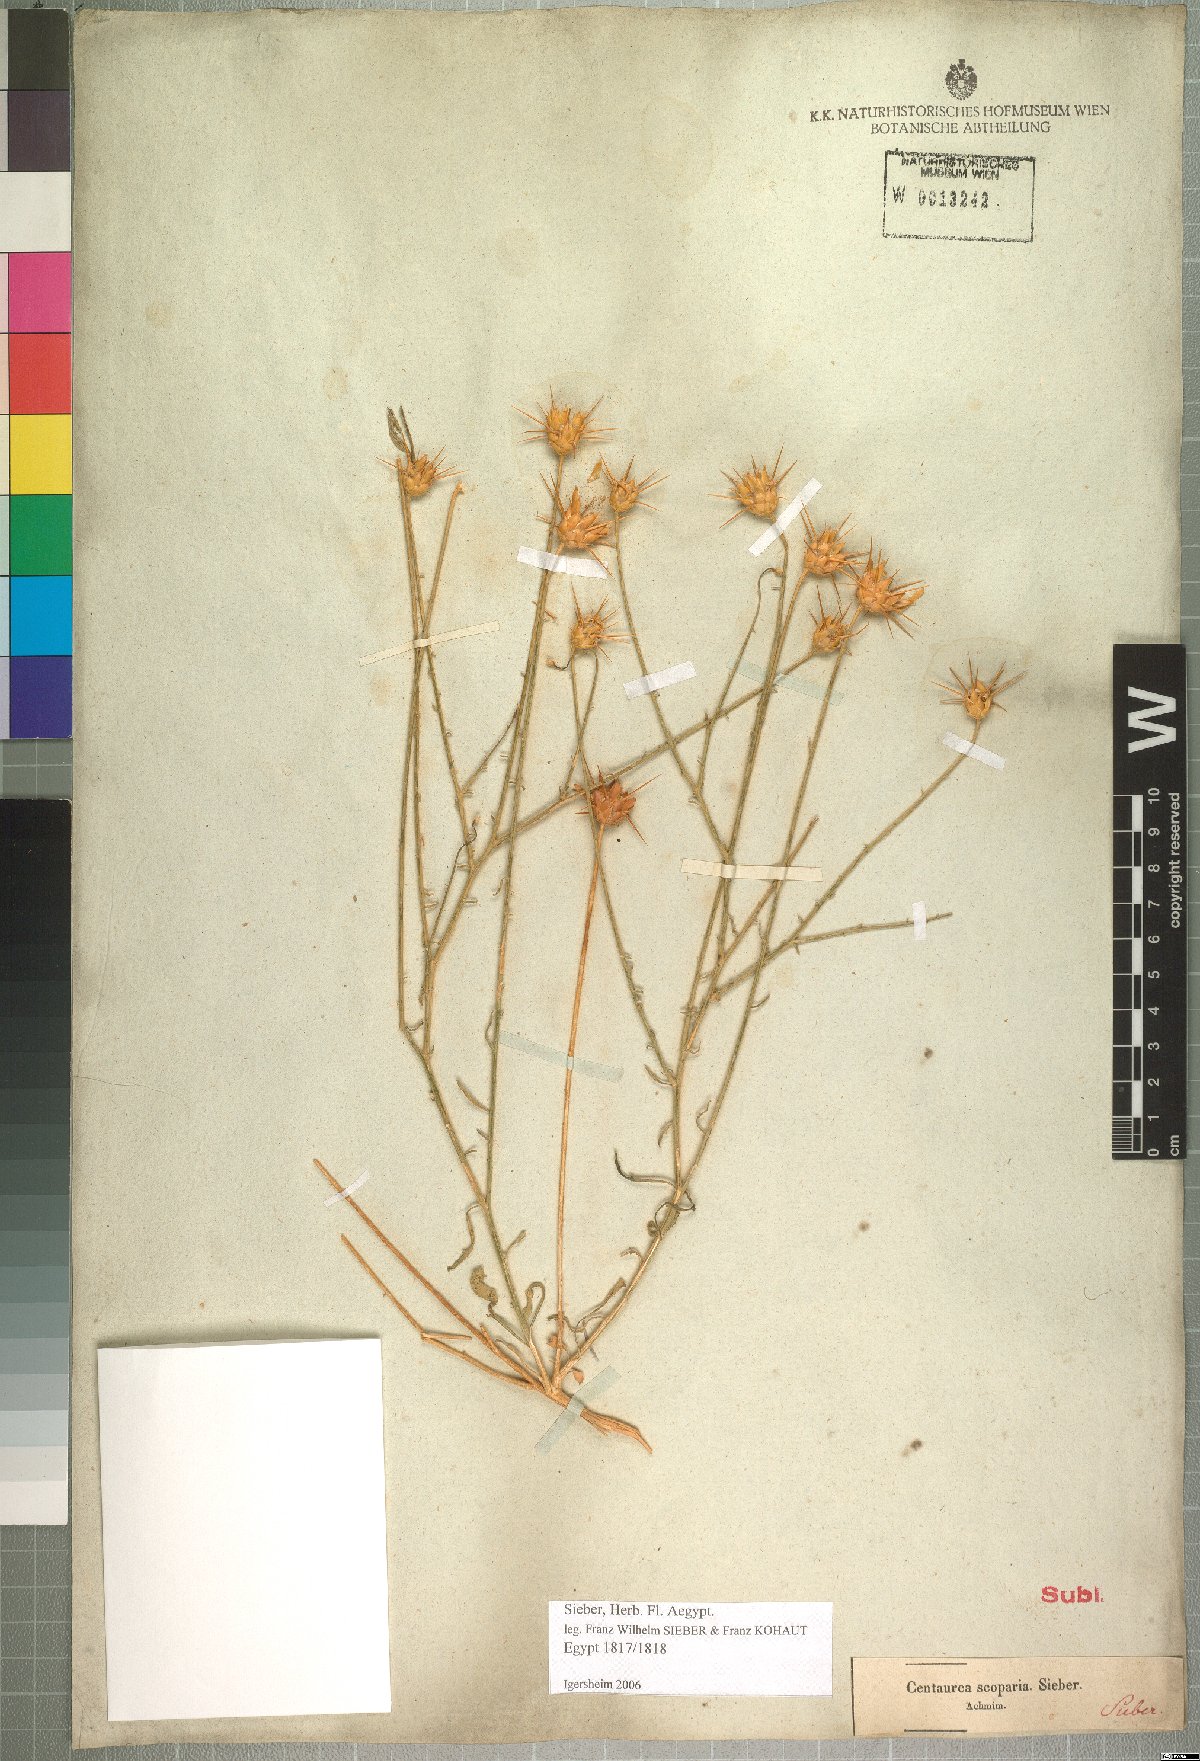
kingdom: Plantae
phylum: Tracheophyta
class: Magnoliopsida
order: Asterales
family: Asteraceae
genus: Centaurea
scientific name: Centaurea scoparia
